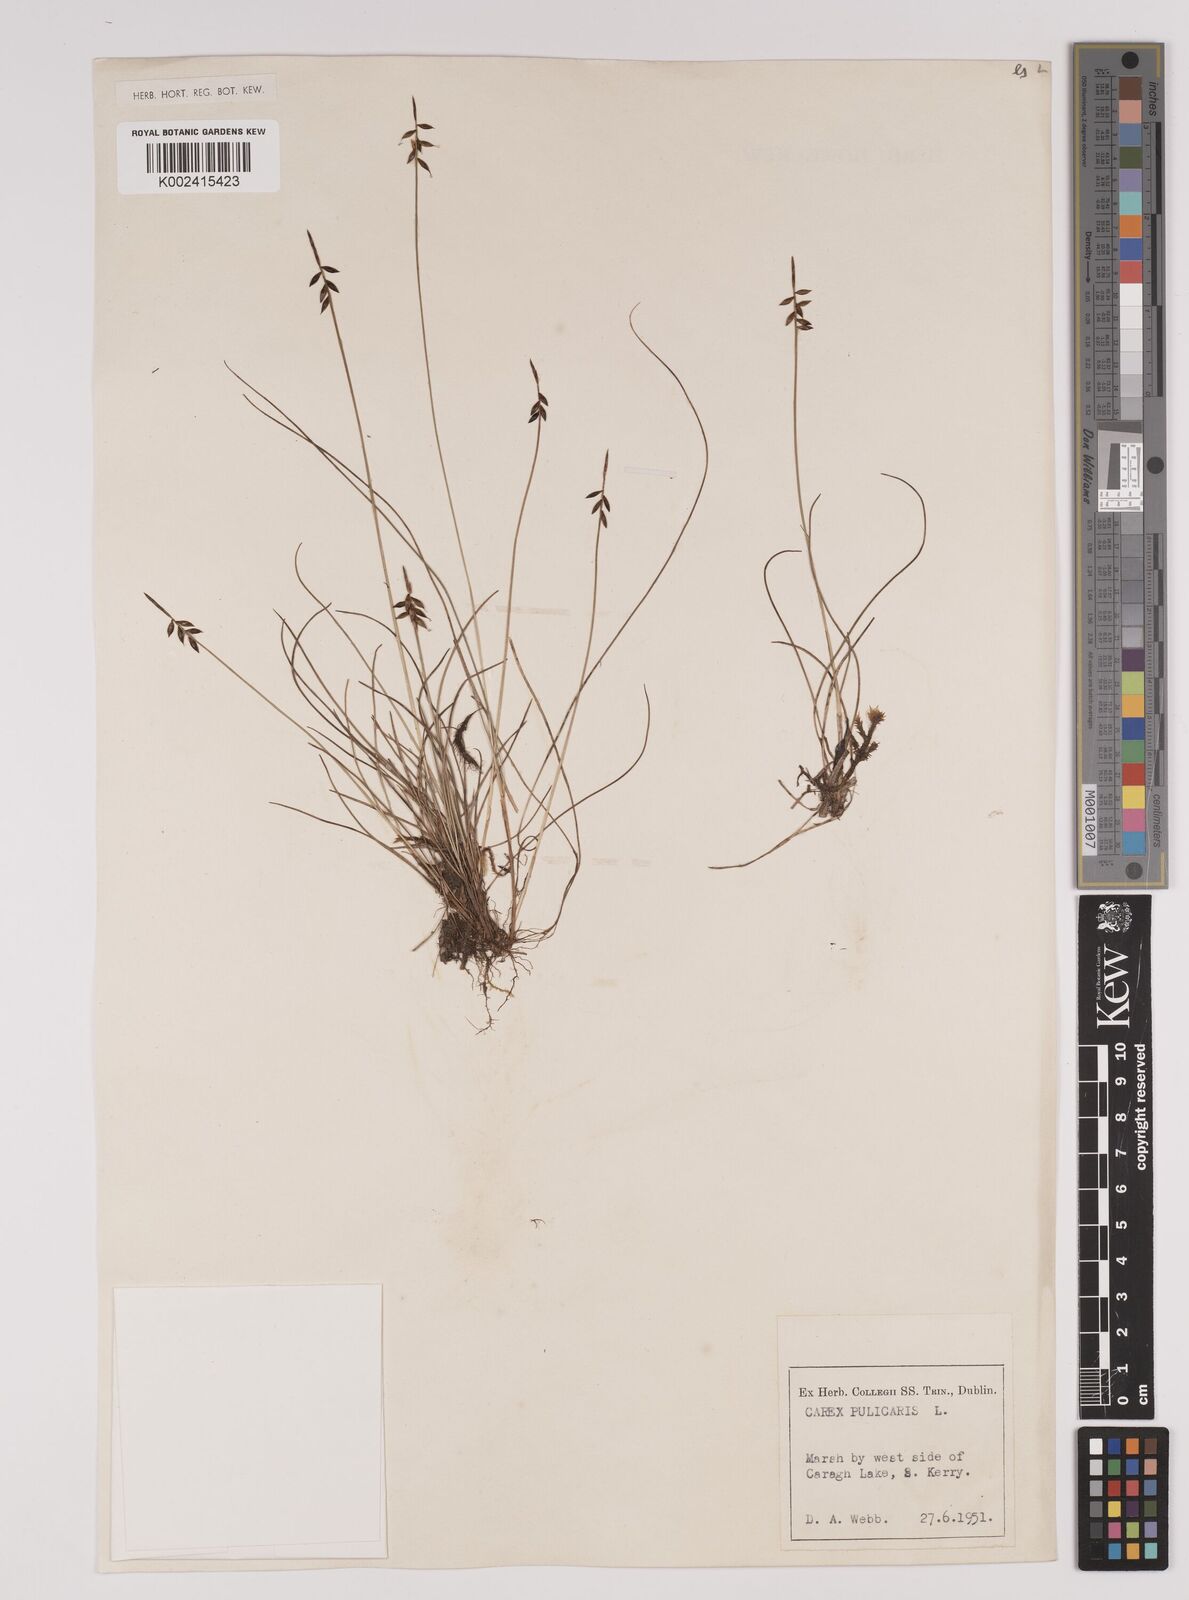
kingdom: Plantae
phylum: Tracheophyta
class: Liliopsida
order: Poales
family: Cyperaceae
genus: Carex
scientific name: Carex pulicaris
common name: Flea sedge
